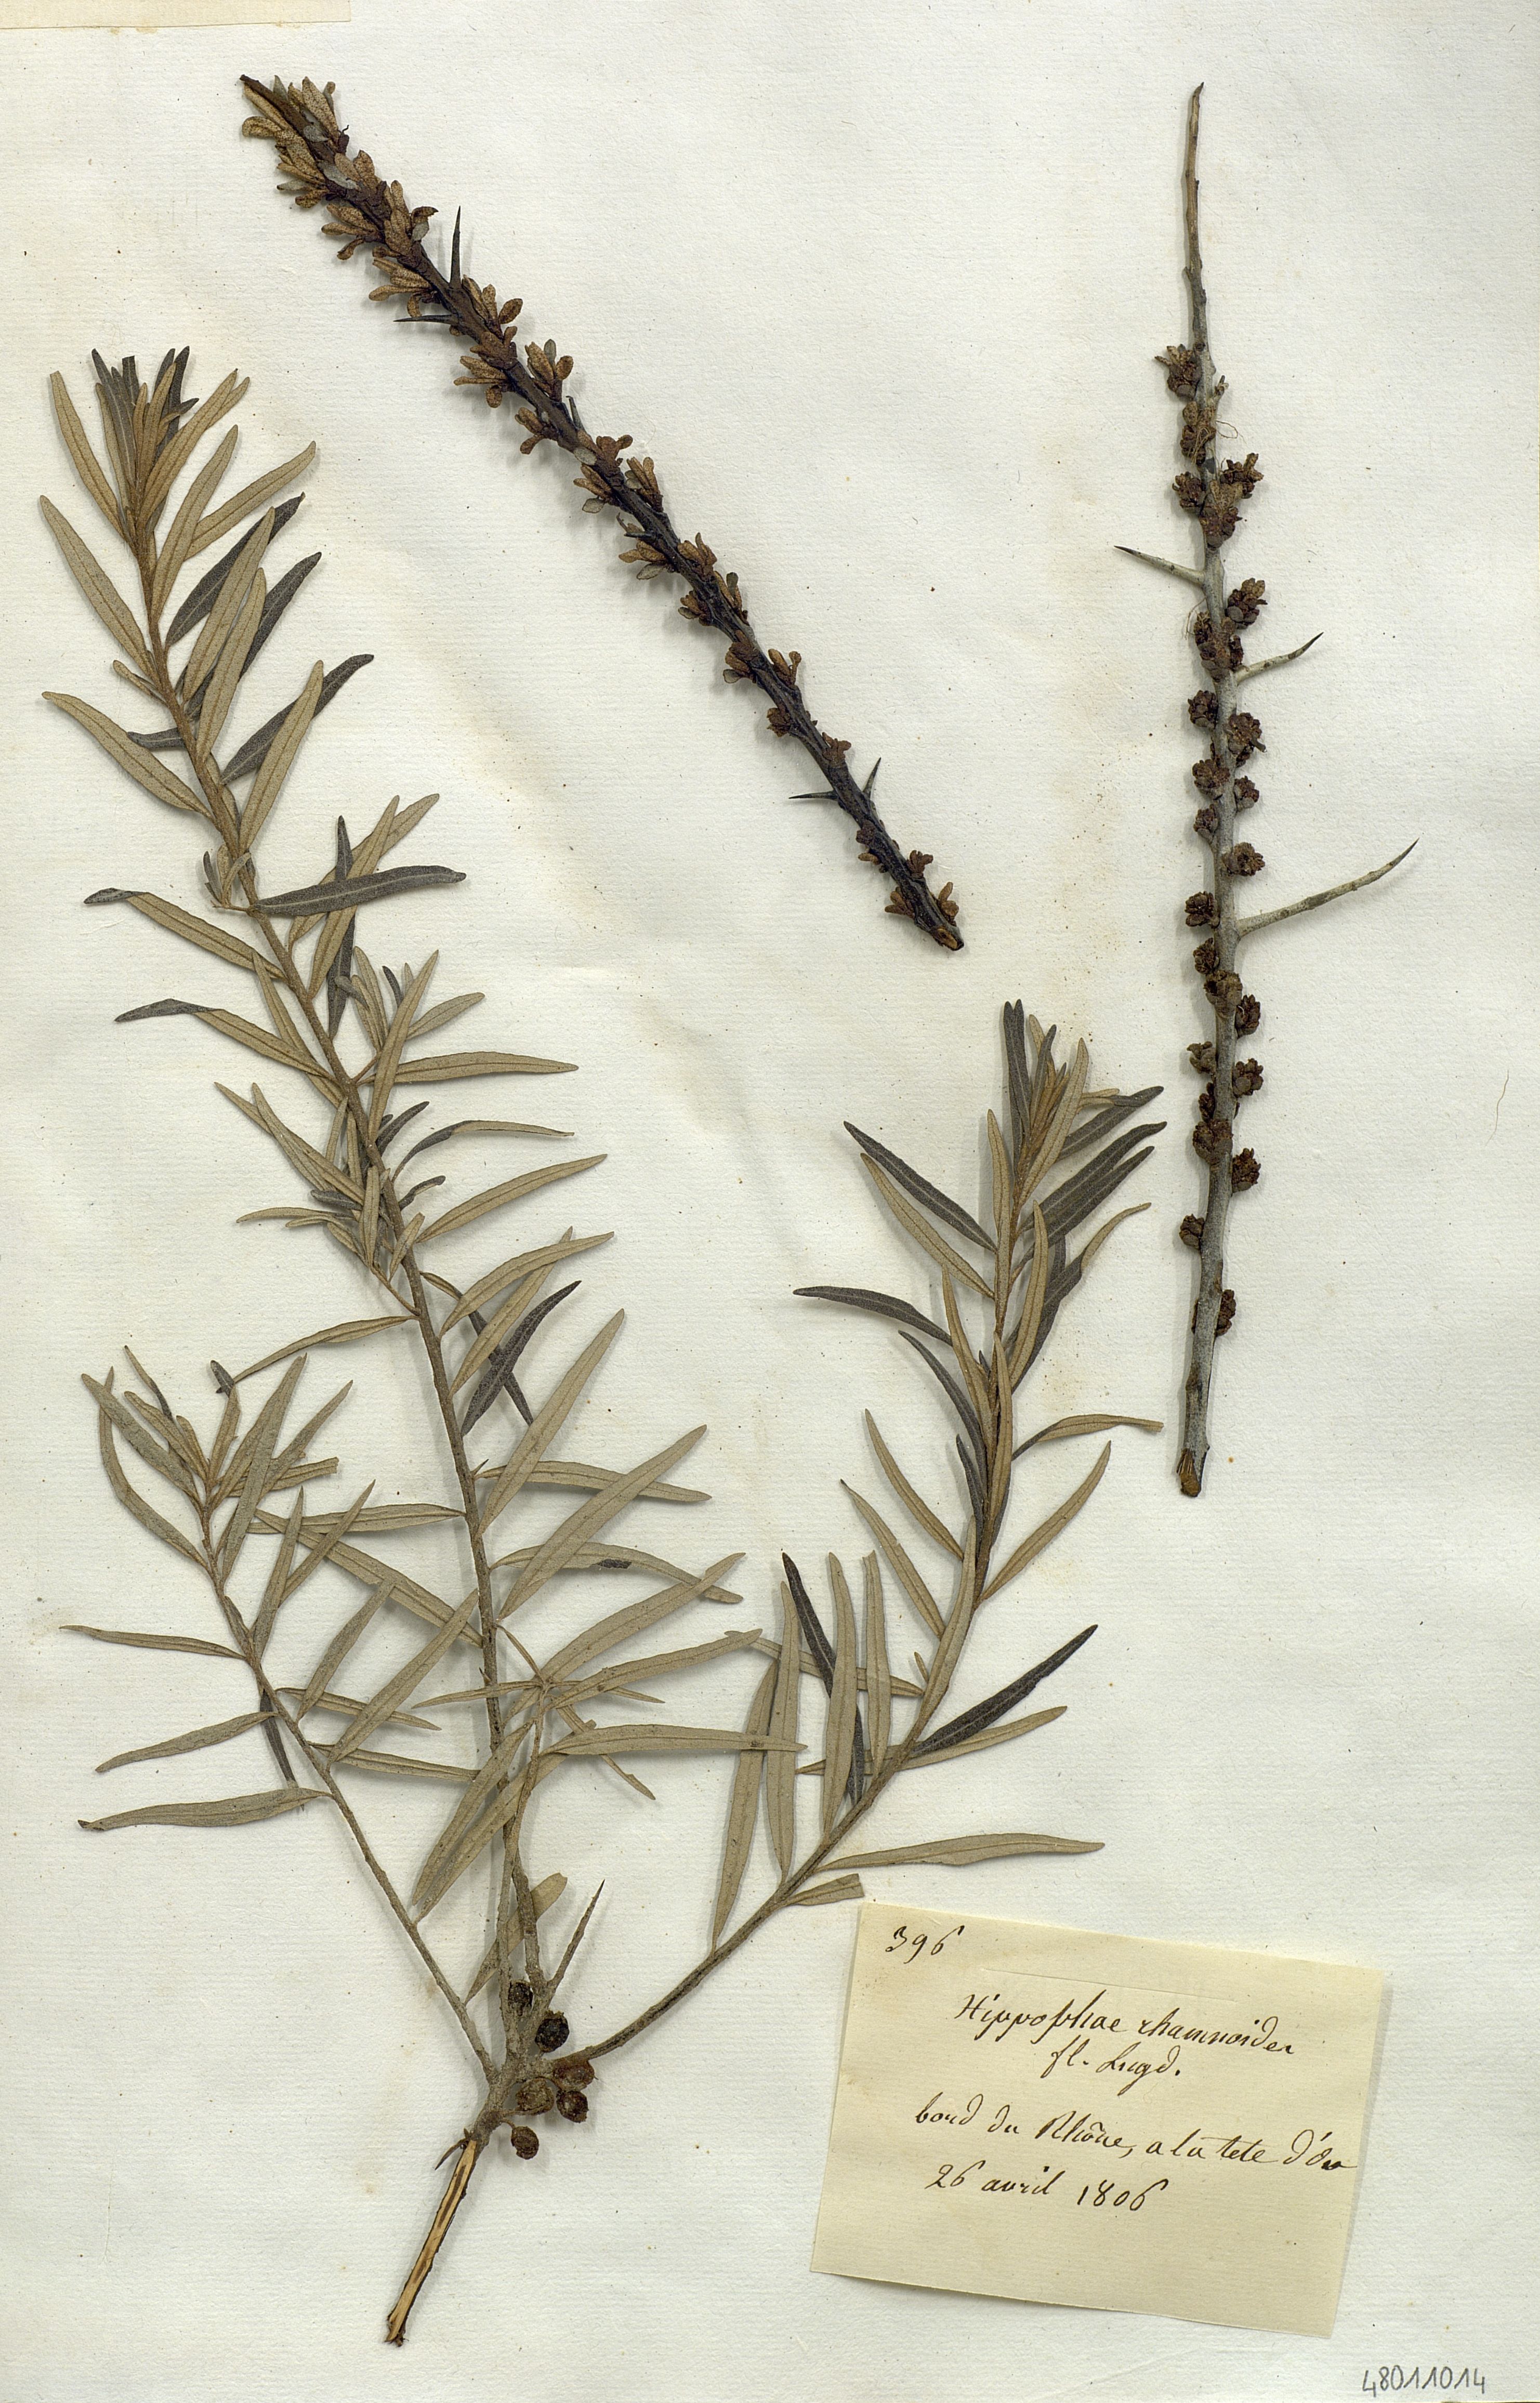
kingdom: Plantae
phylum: Tracheophyta
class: Magnoliopsida
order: Rosales
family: Elaeagnaceae
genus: Hippophae
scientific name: Hippophae rhamnoides
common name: Sea-buckthorn
